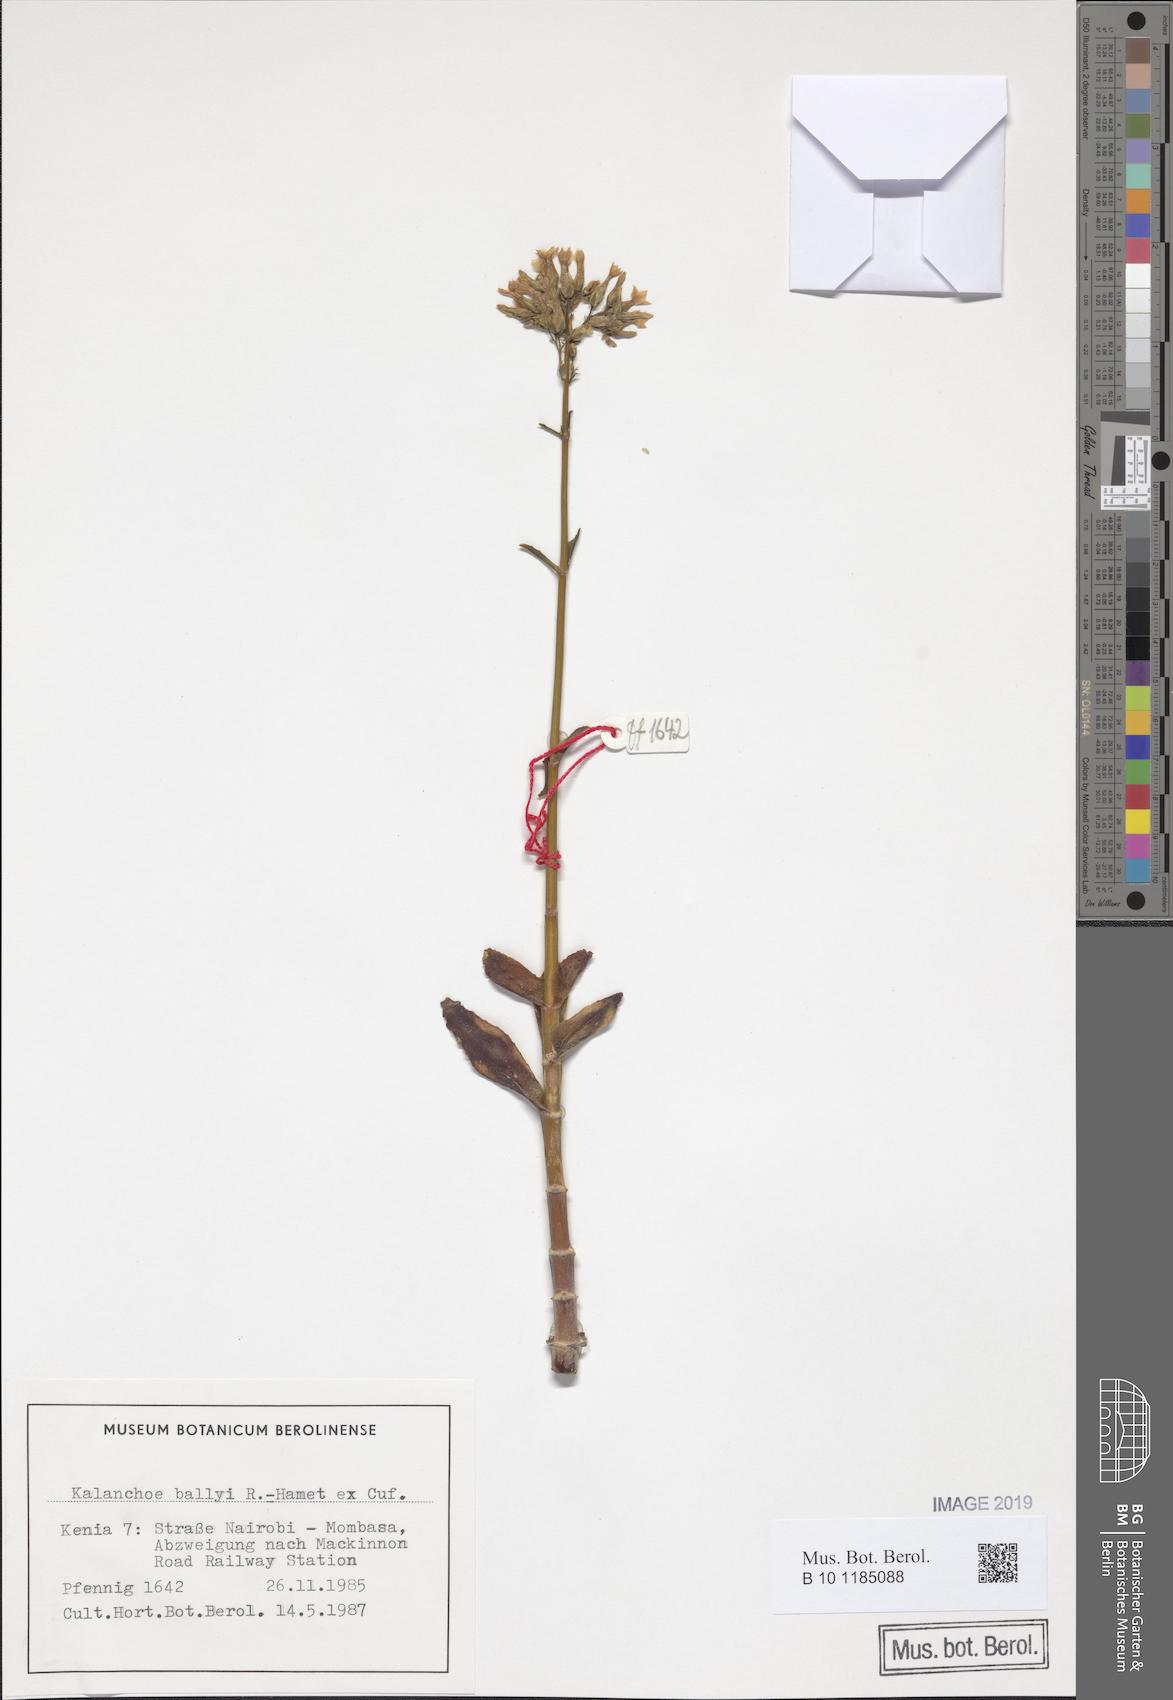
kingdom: Plantae
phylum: Tracheophyta
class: Magnoliopsida
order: Saxifragales
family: Crassulaceae
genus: Kalanchoe
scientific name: Kalanchoe ballyi
